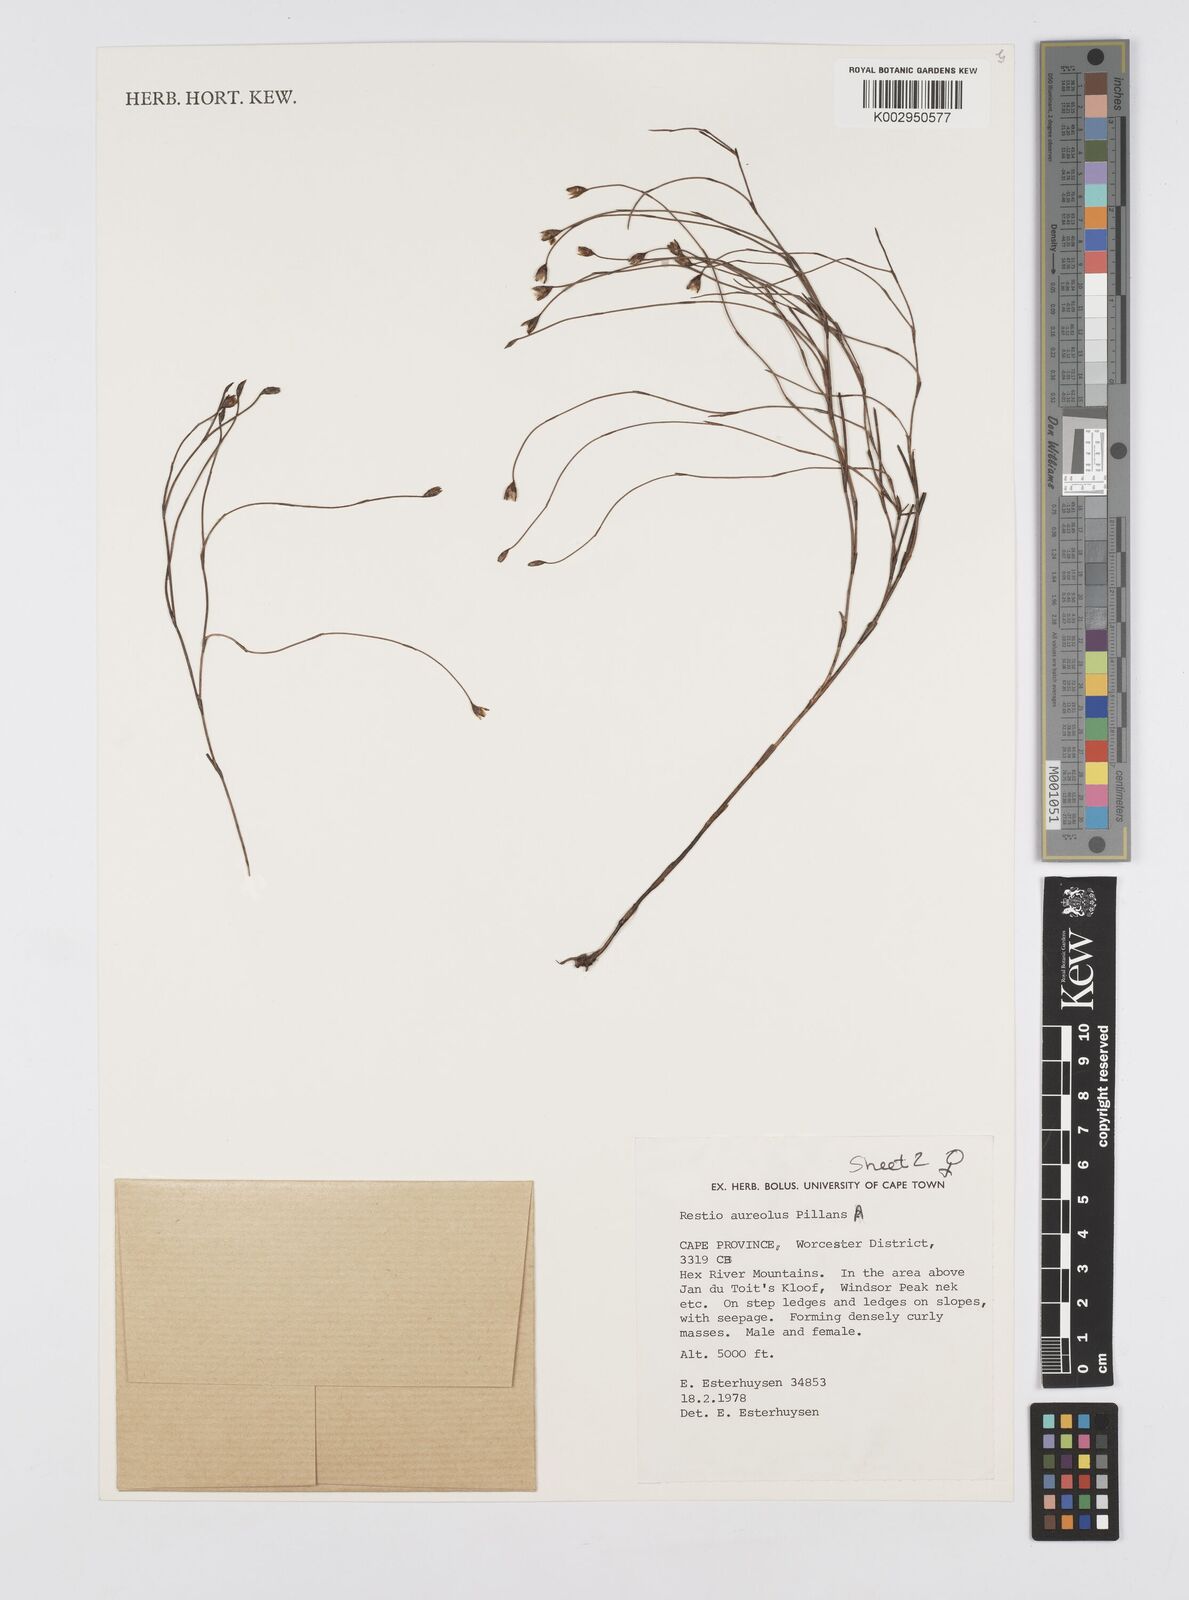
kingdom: Plantae
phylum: Tracheophyta
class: Liliopsida
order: Poales
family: Restionaceae
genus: Restio
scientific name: Restio aureolus
